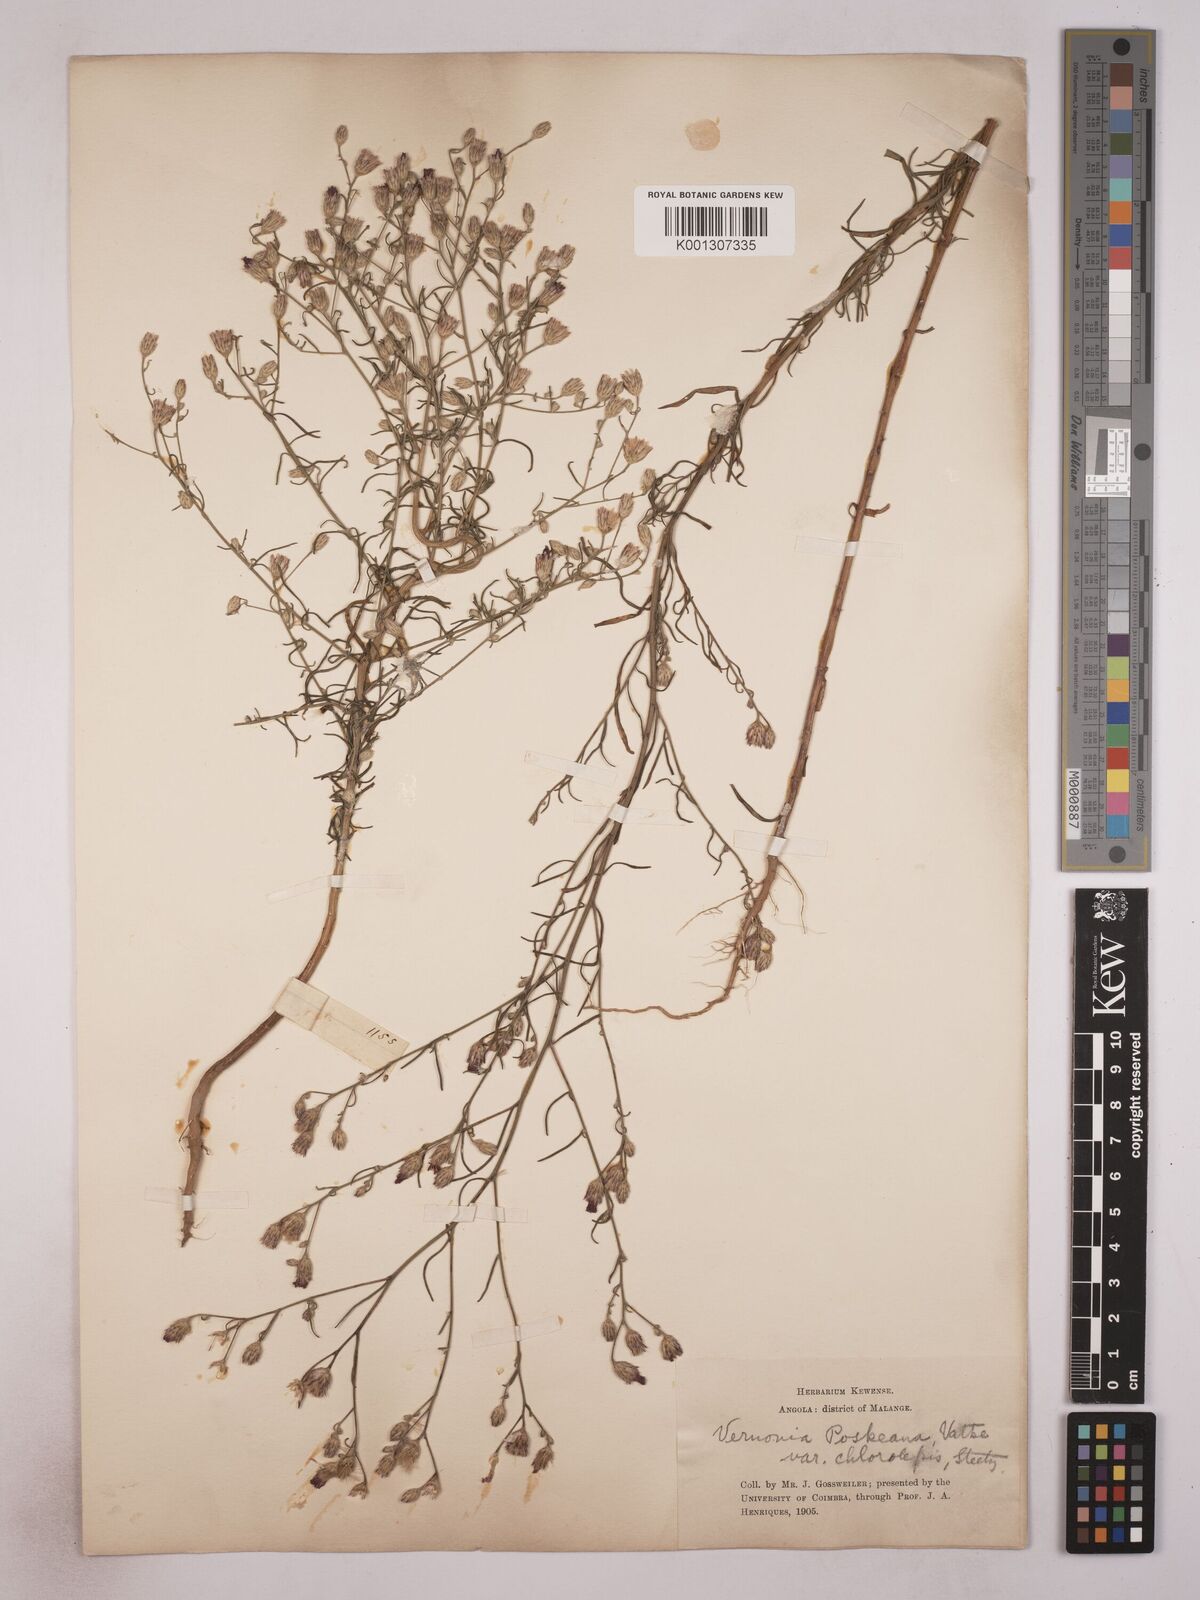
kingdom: Plantae
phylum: Tracheophyta
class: Magnoliopsida
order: Asterales
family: Asteraceae
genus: Crystallopollen
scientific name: Crystallopollen angustifolium
